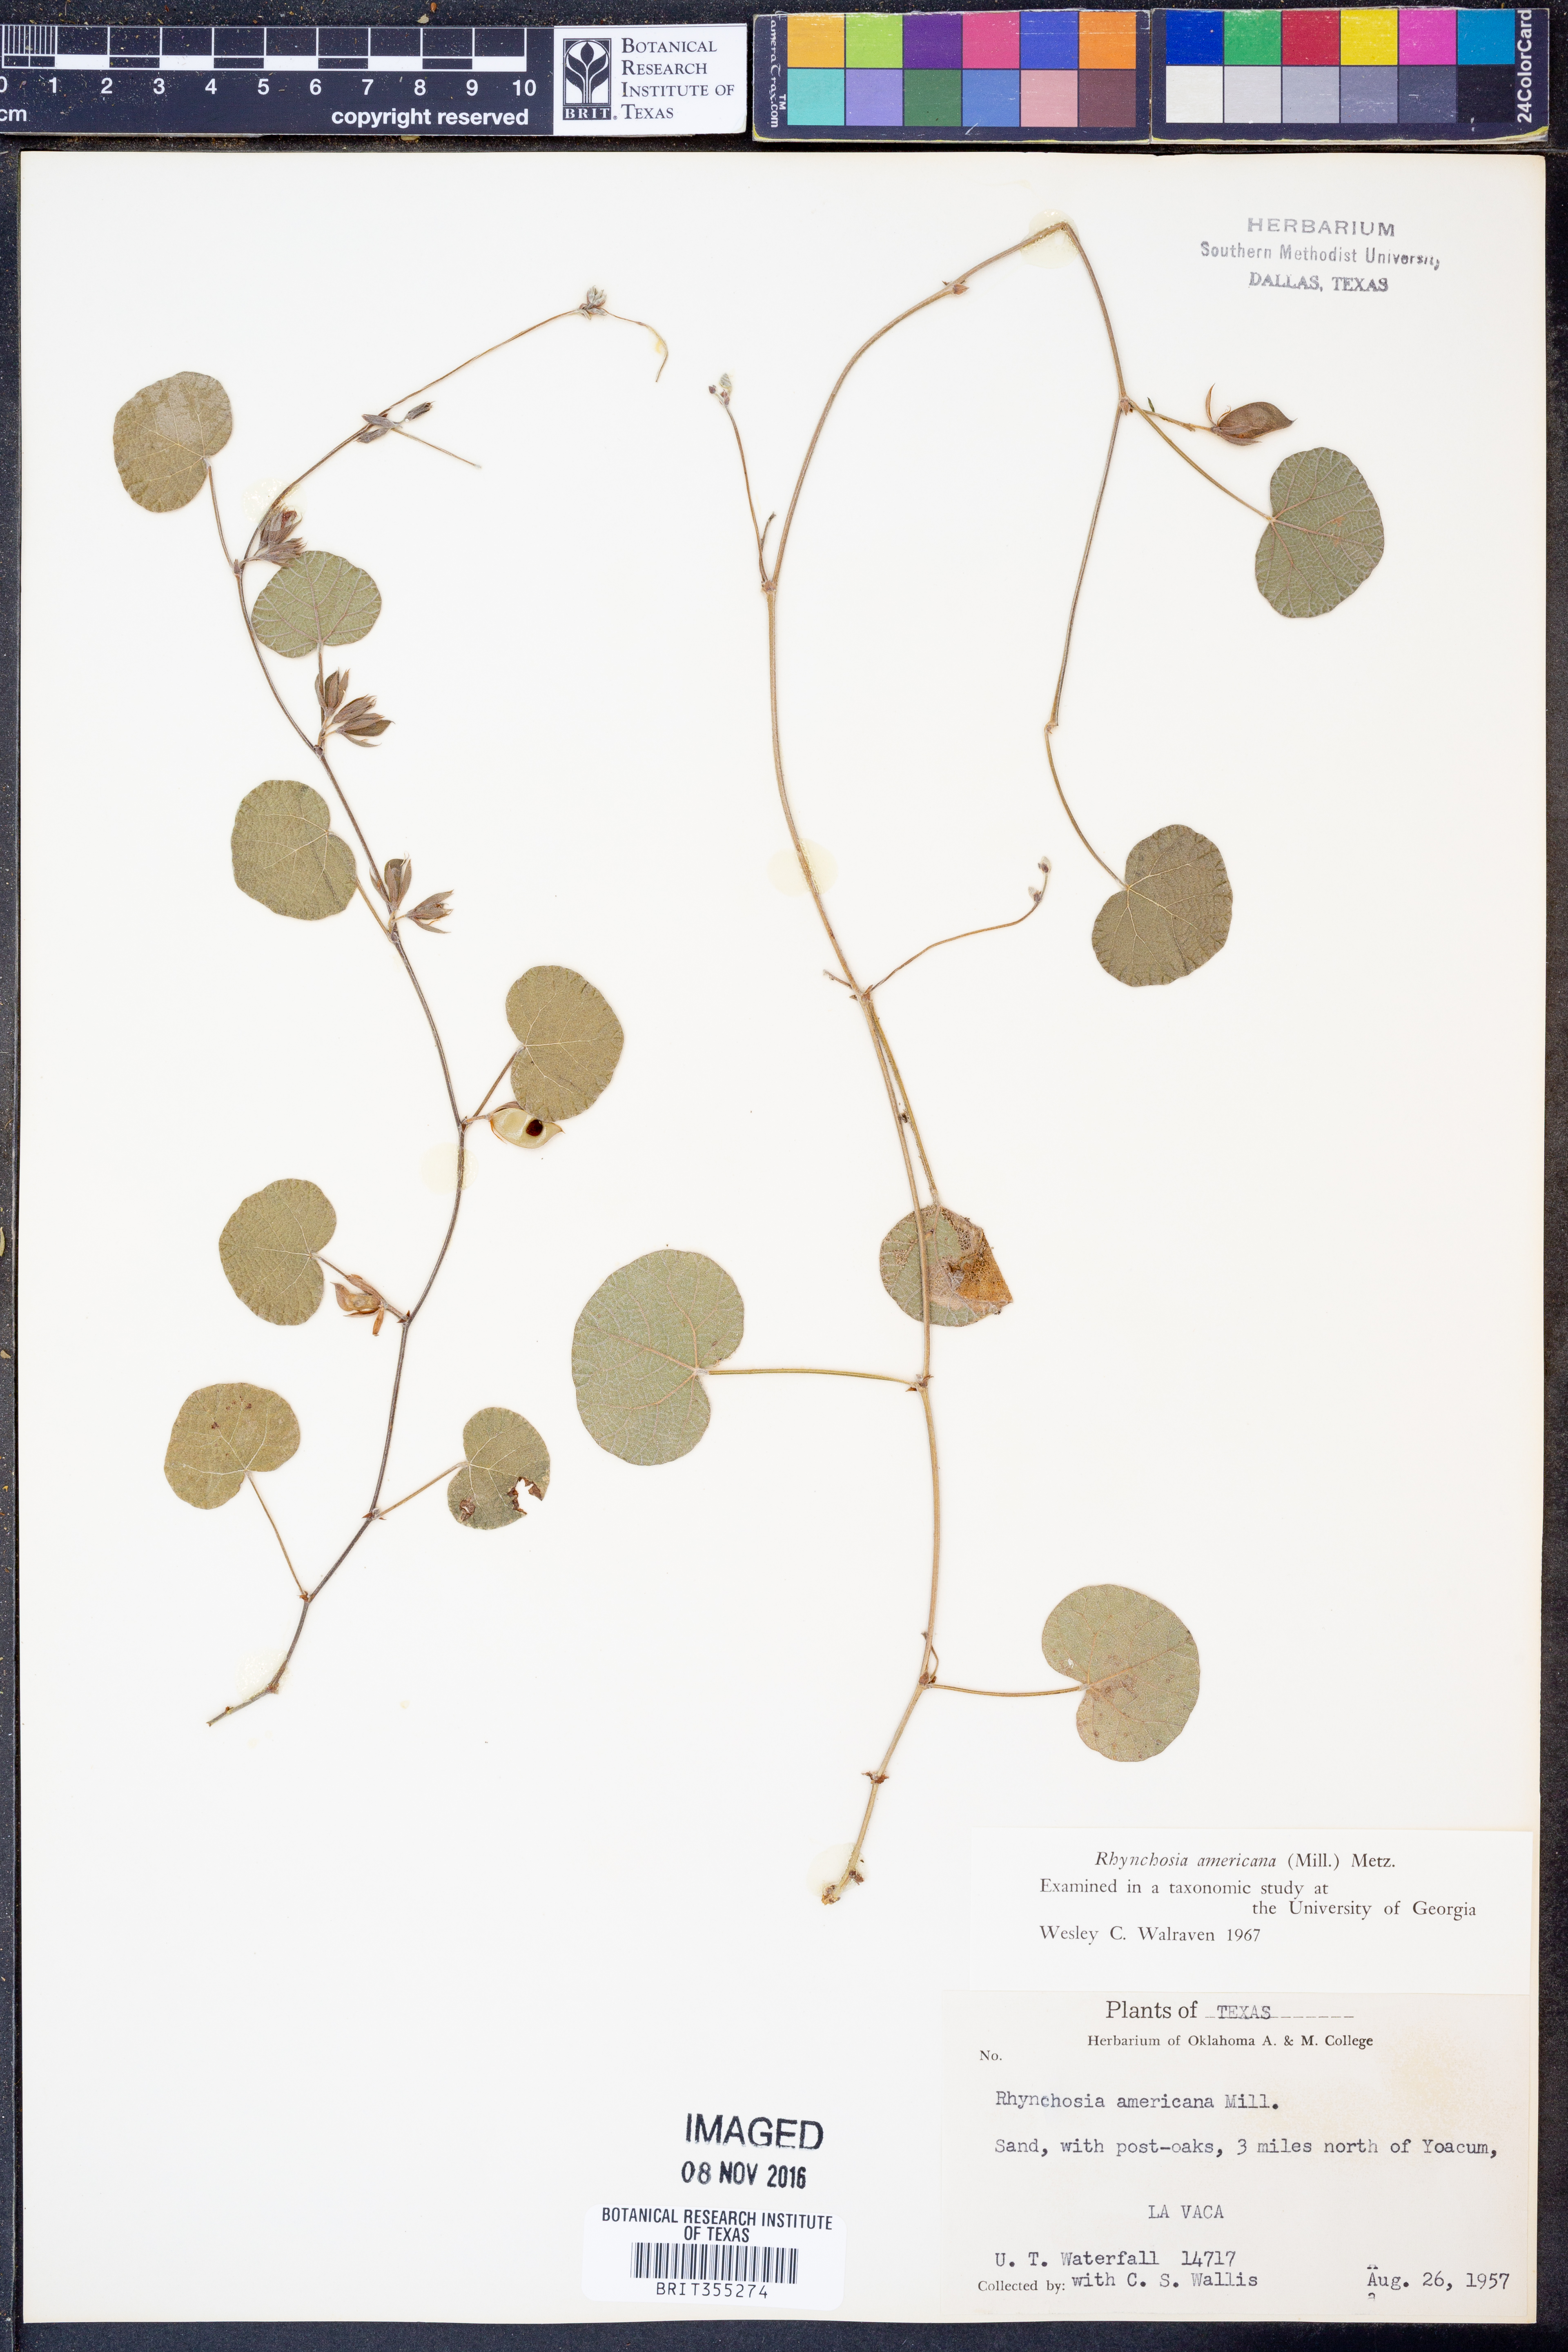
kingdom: Plantae
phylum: Tracheophyta
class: Magnoliopsida
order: Fabales
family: Fabaceae
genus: Rhynchosia
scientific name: Rhynchosia americana
